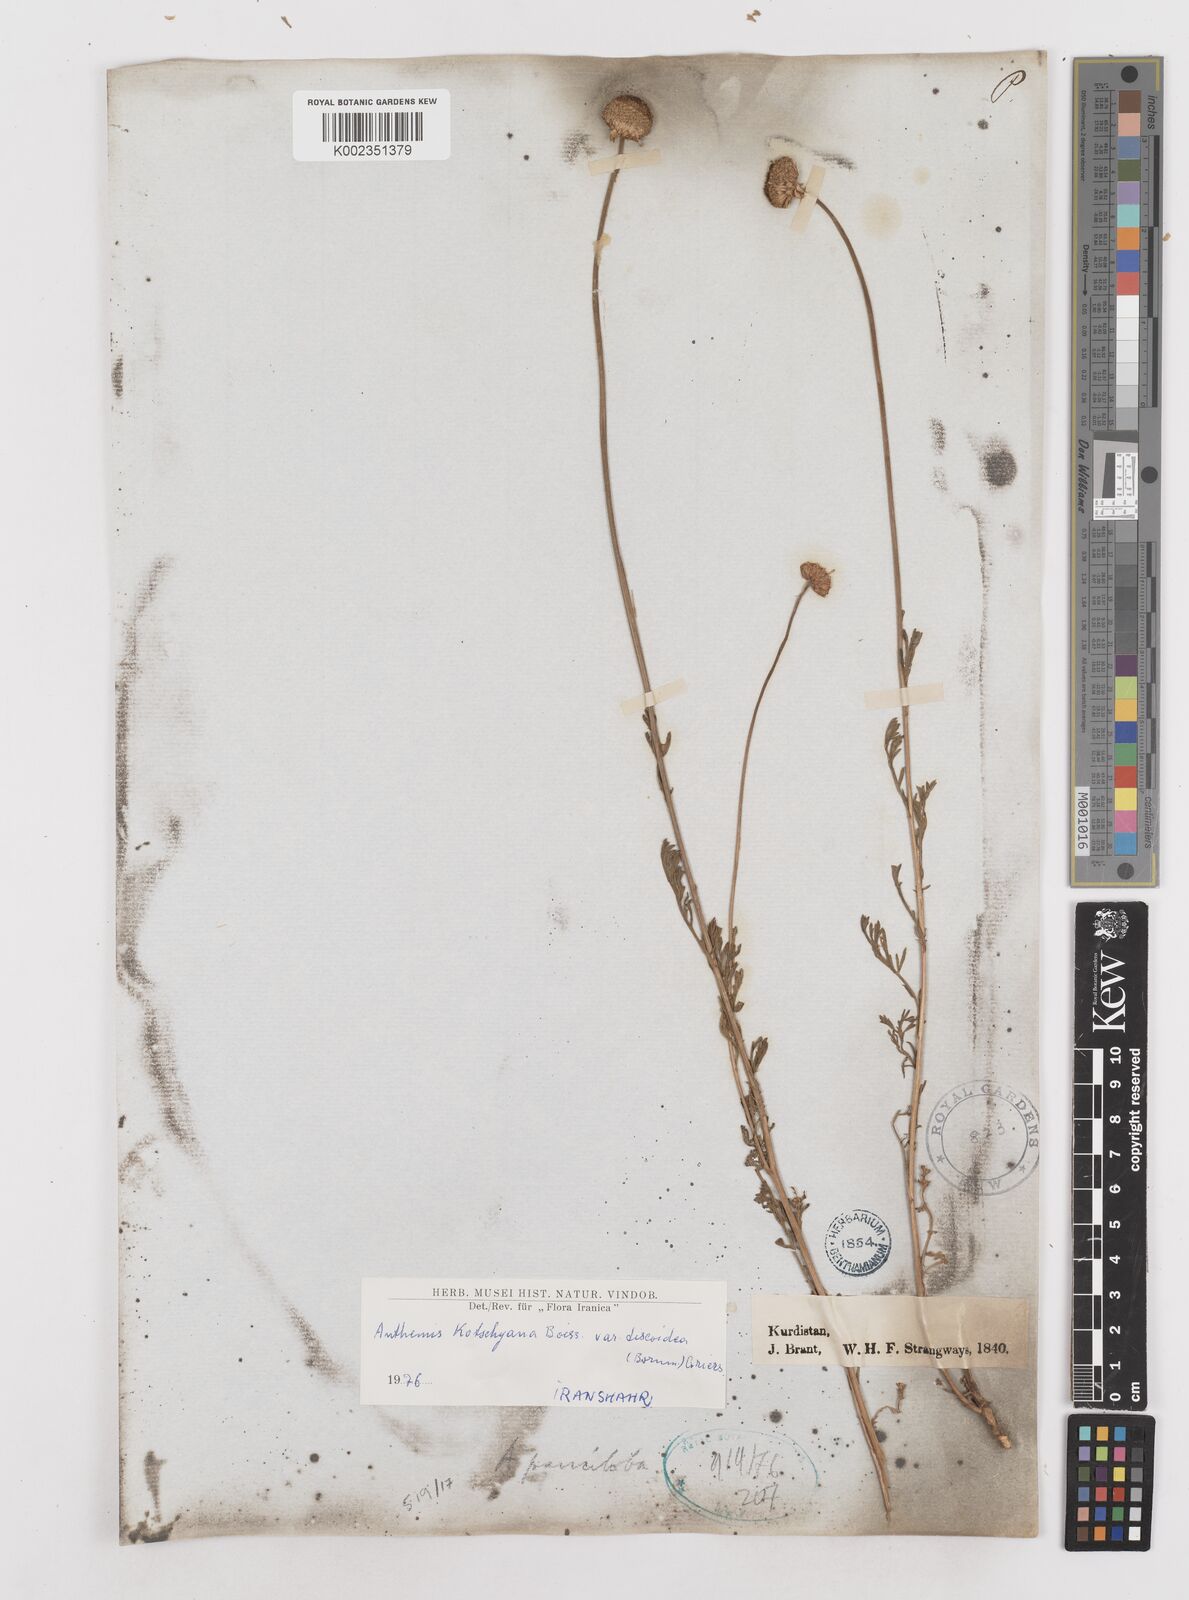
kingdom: Plantae
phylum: Tracheophyta
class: Magnoliopsida
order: Asterales
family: Asteraceae
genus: Anthemis
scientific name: Anthemis kotschyana
